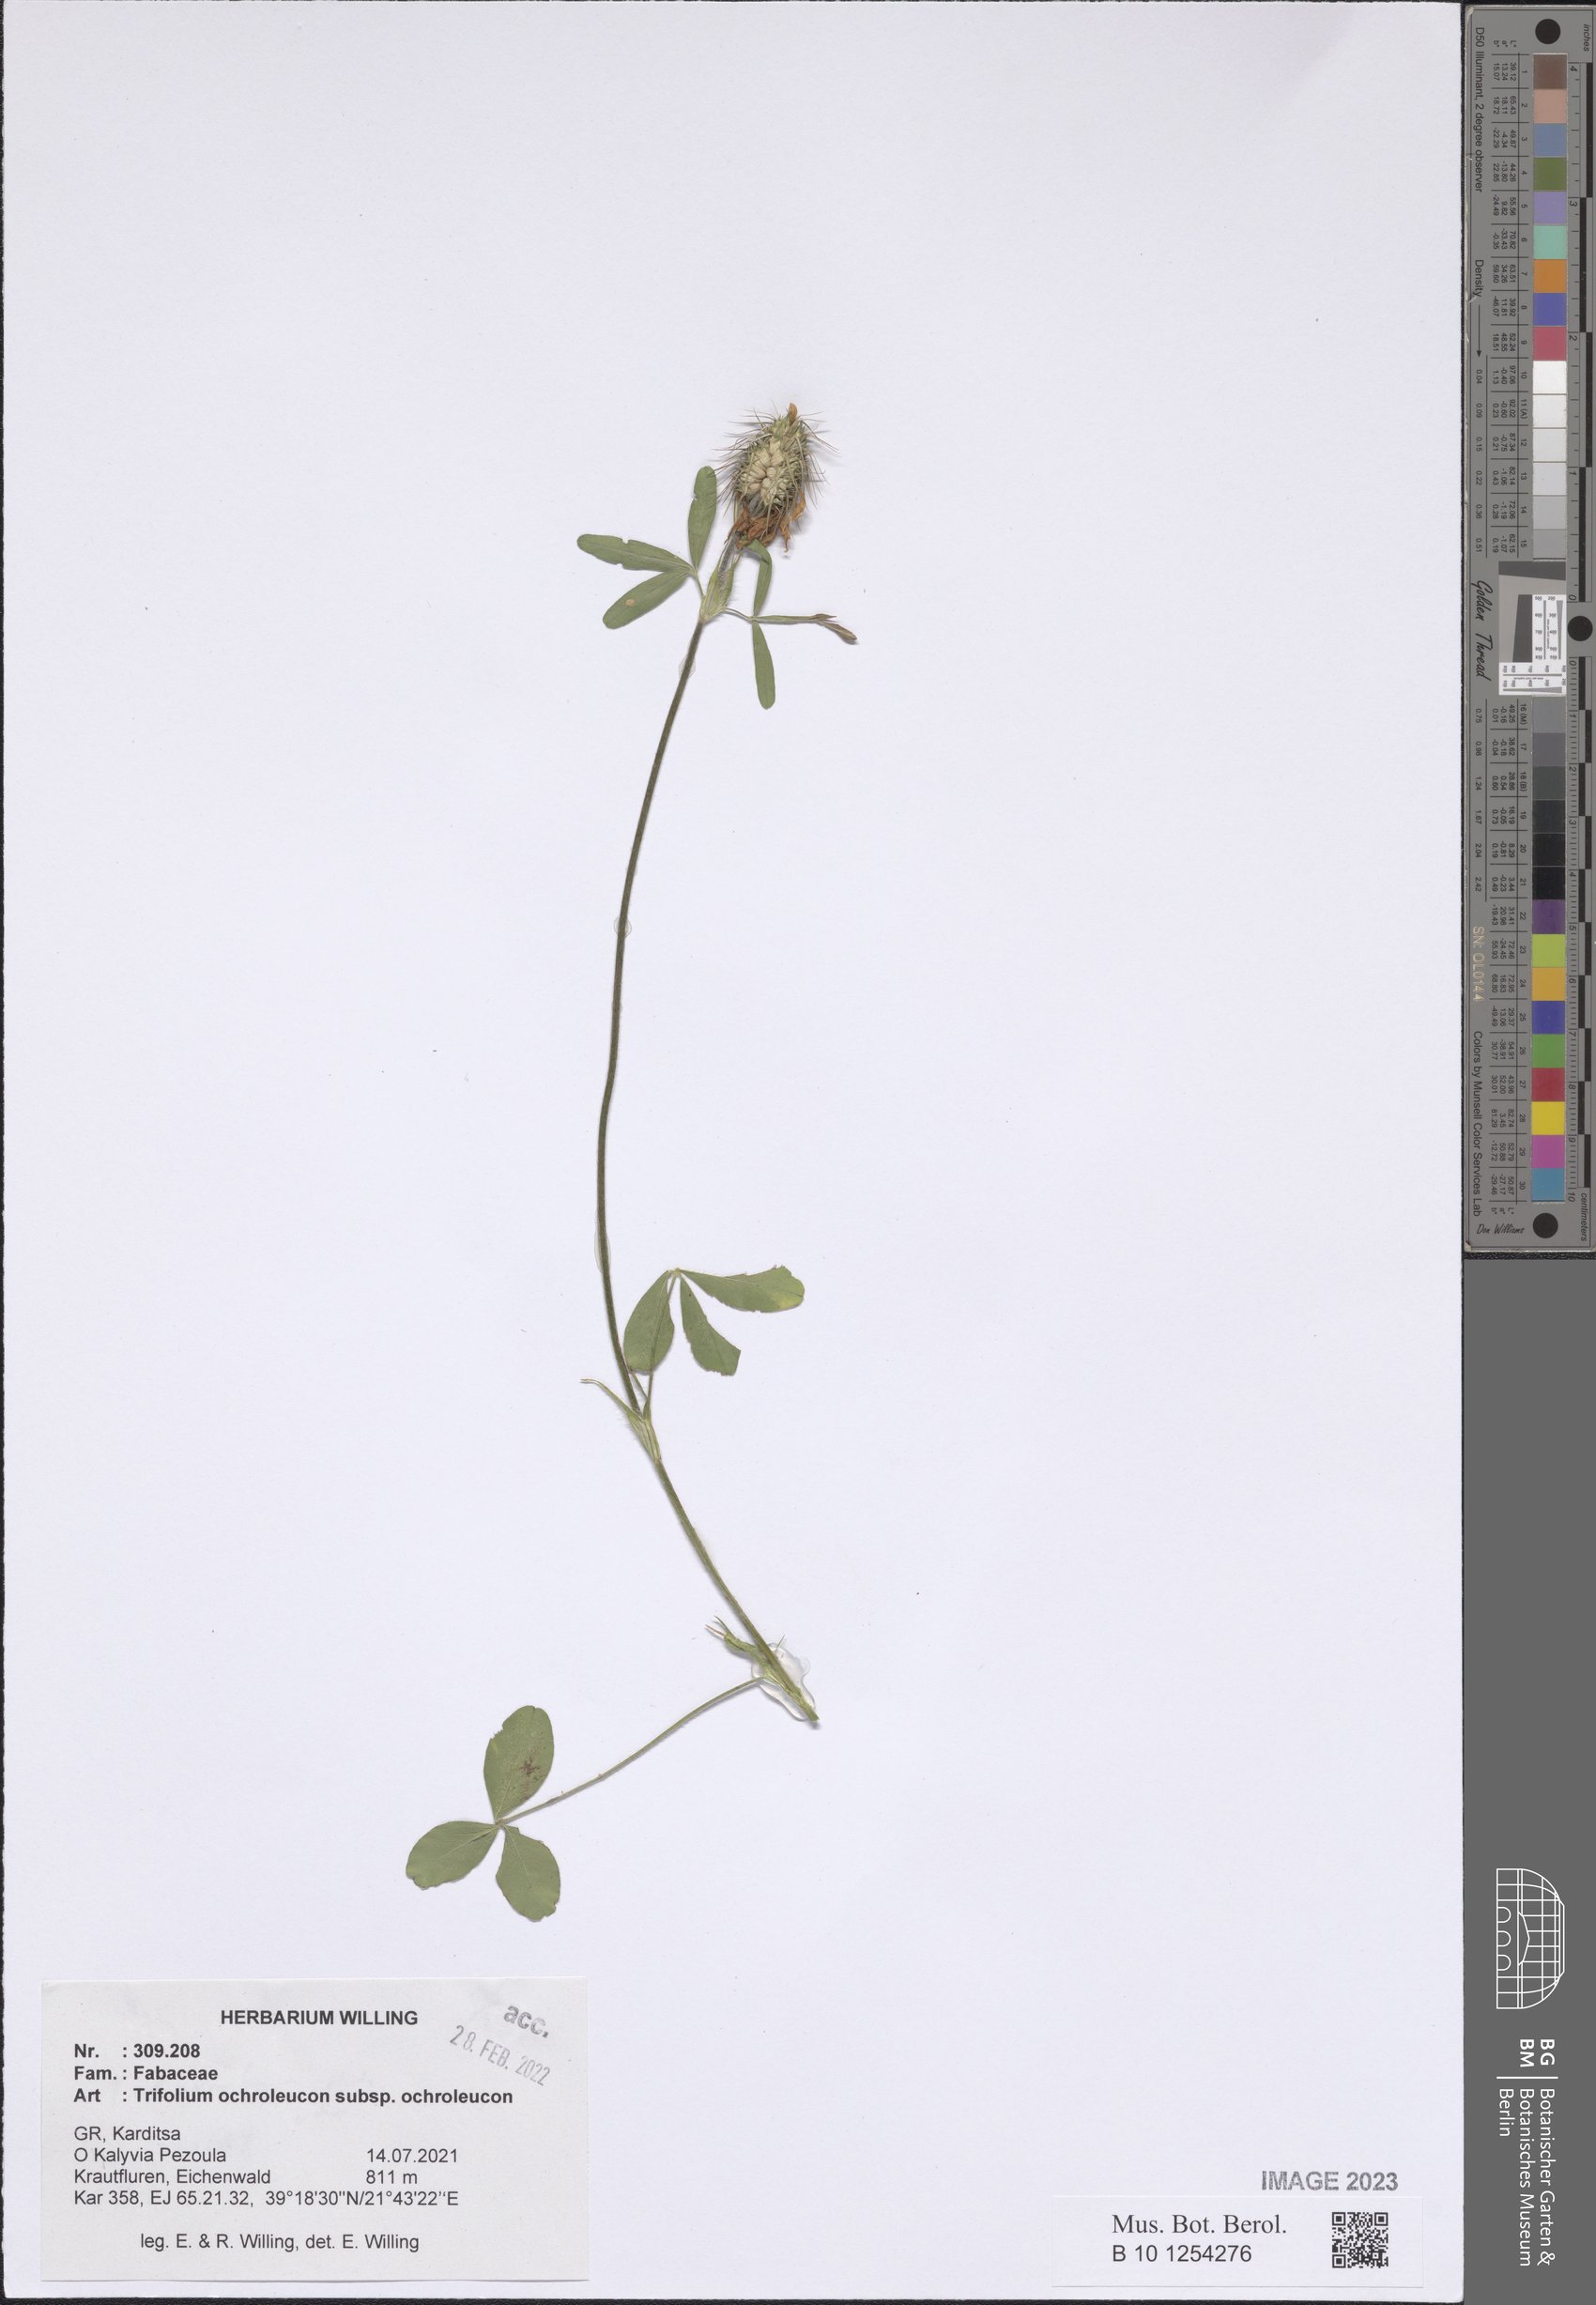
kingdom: Plantae
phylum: Tracheophyta
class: Magnoliopsida
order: Fabales
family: Fabaceae
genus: Trifolium
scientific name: Trifolium ochroleucon
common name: Sulphur clover
